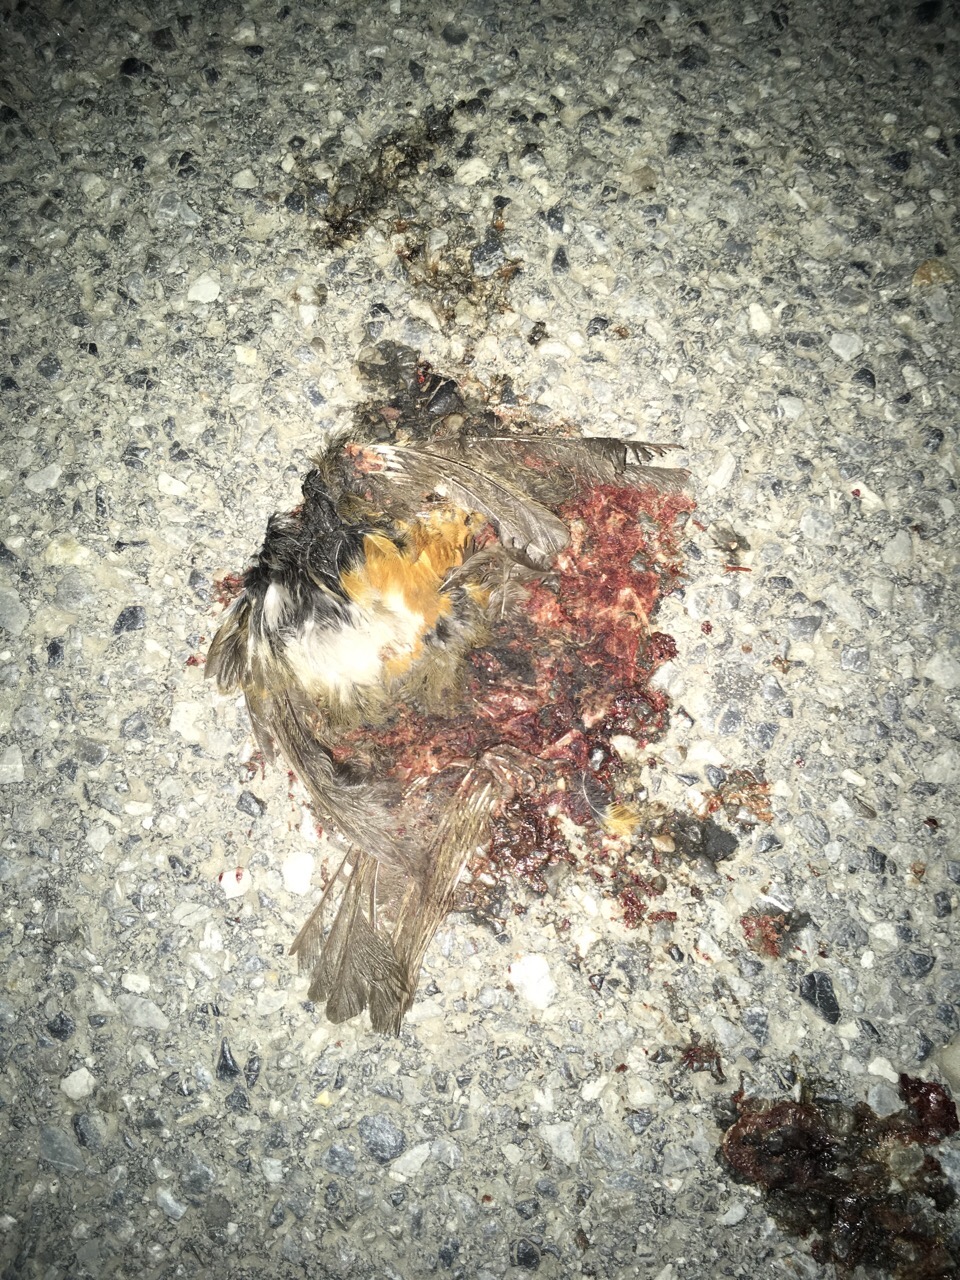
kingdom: Animalia
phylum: Chordata
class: Aves
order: Passeriformes
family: Muscicapidae
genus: Erithacus
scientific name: Erithacus rubecula
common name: European robin
